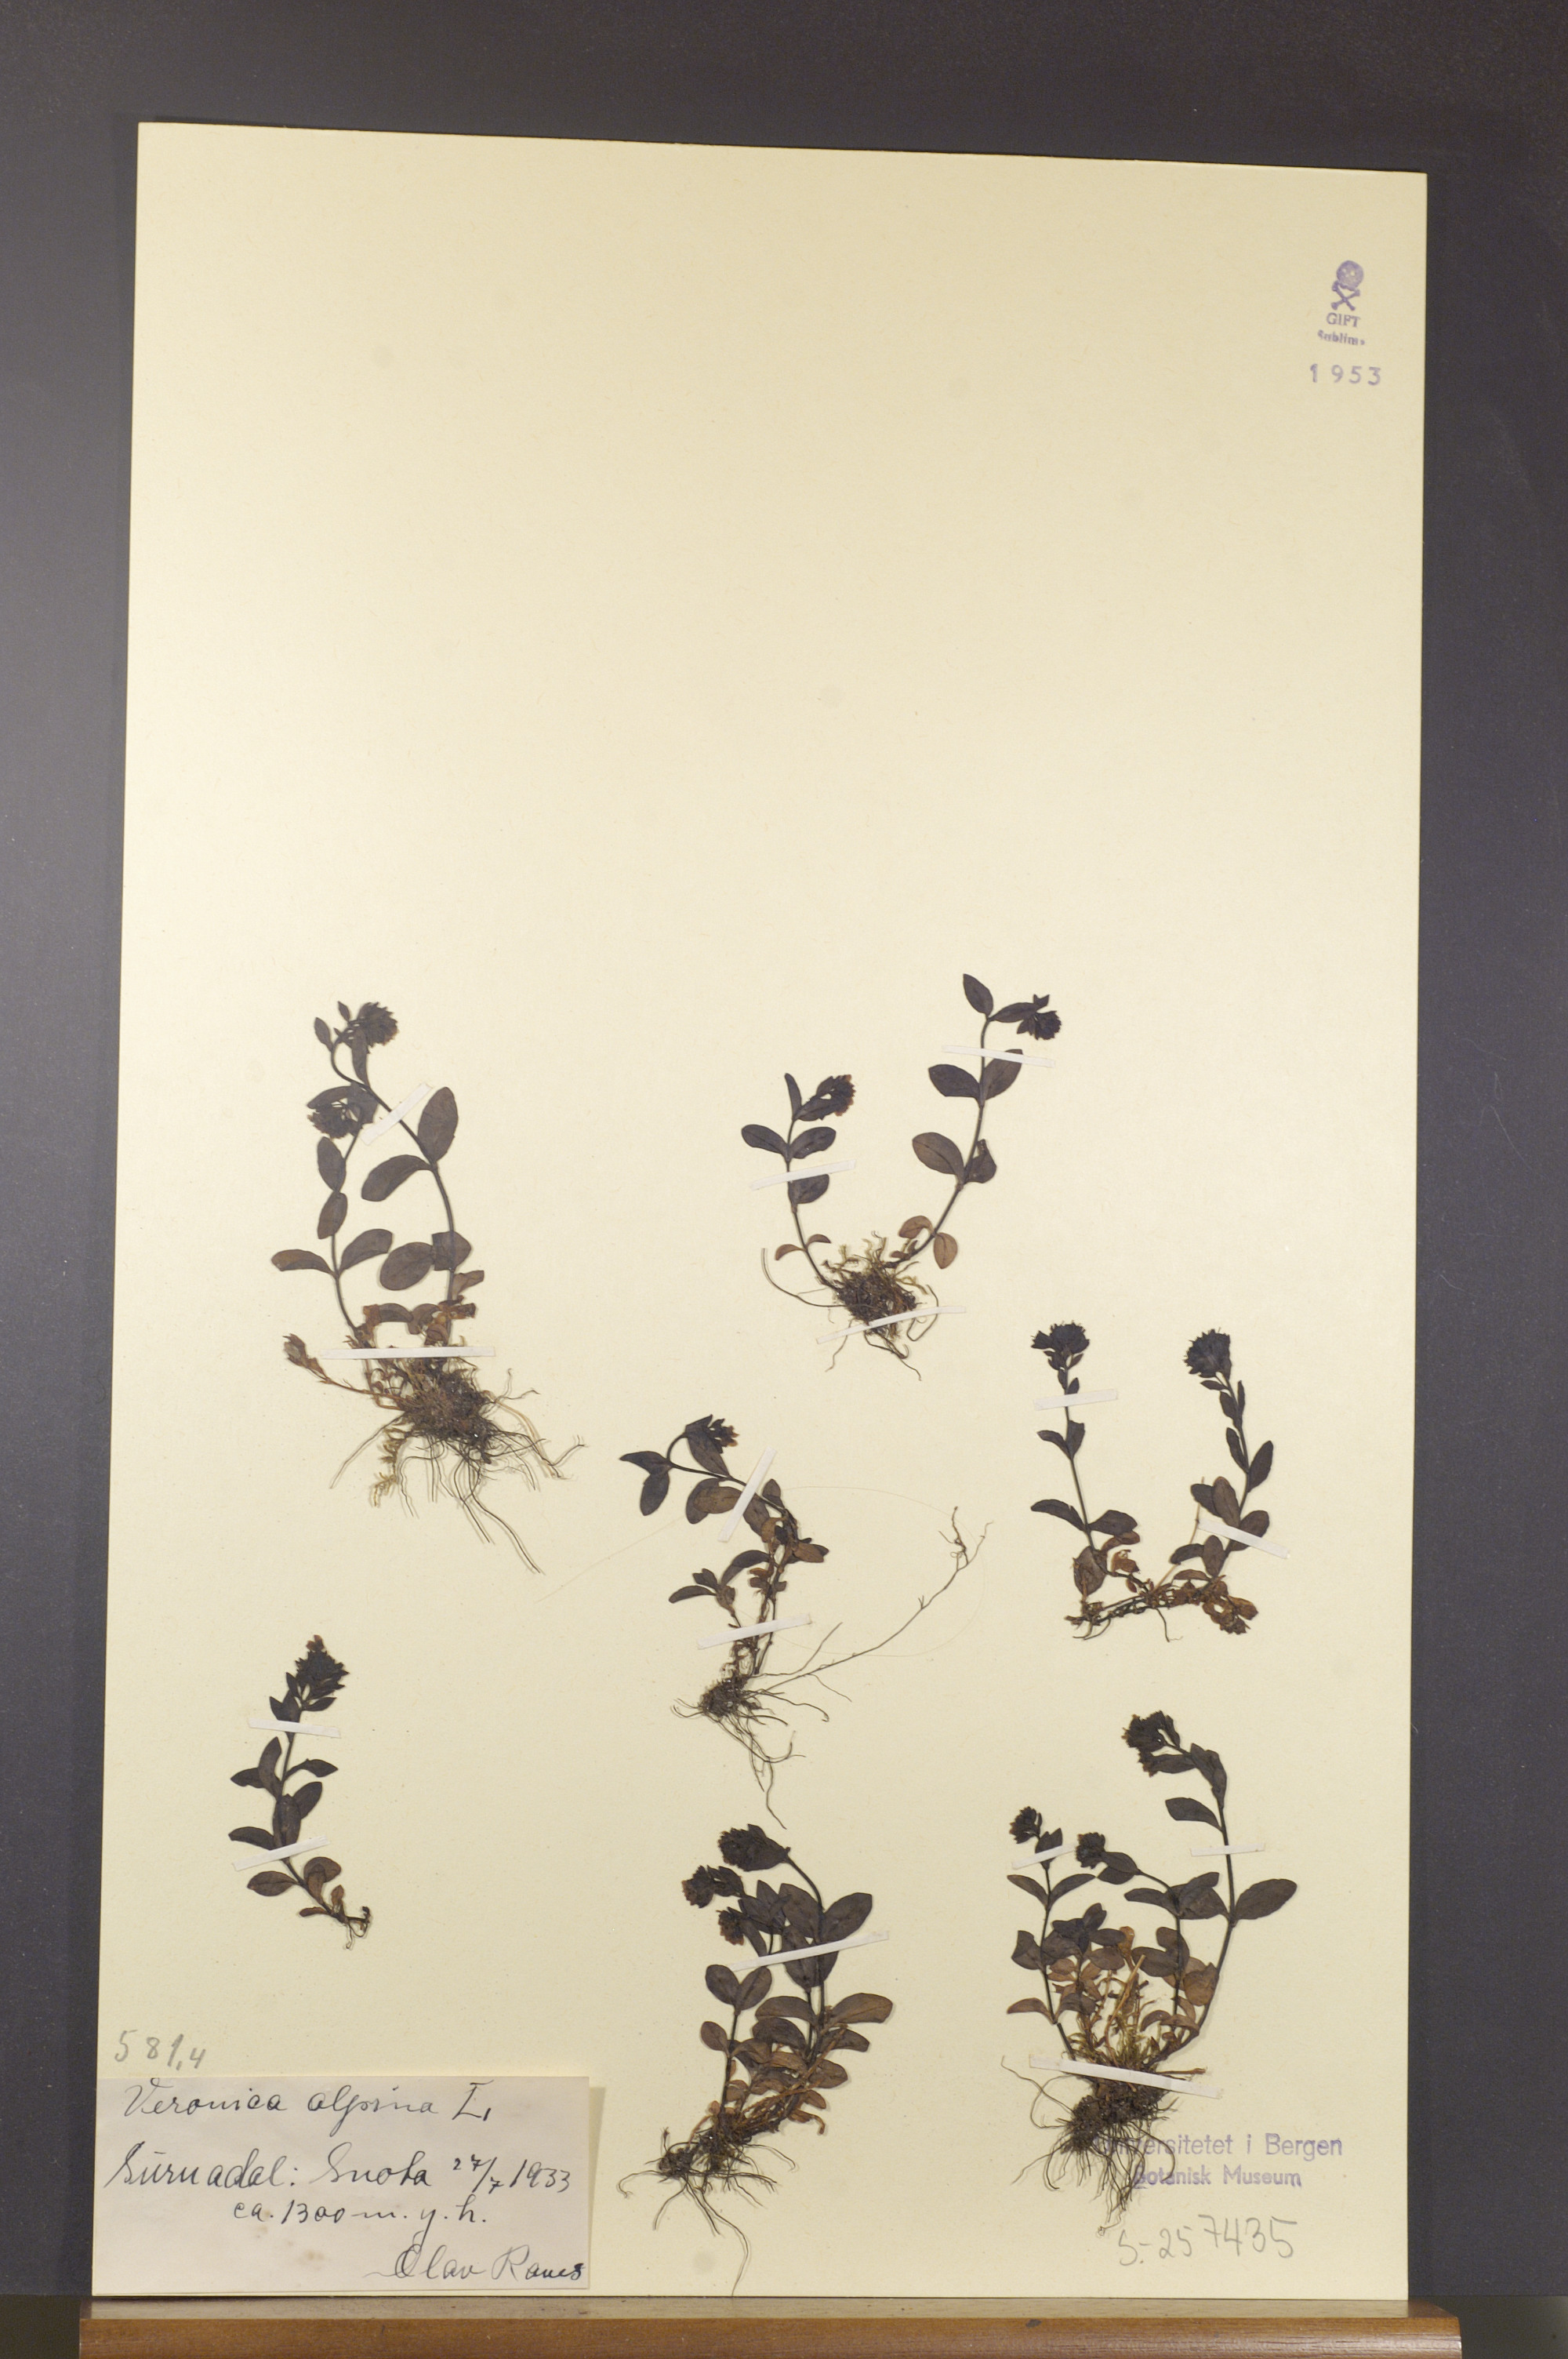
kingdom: Plantae
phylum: Tracheophyta
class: Magnoliopsida
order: Lamiales
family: Plantaginaceae
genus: Veronica
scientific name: Veronica alpina
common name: Alpine speedwell
